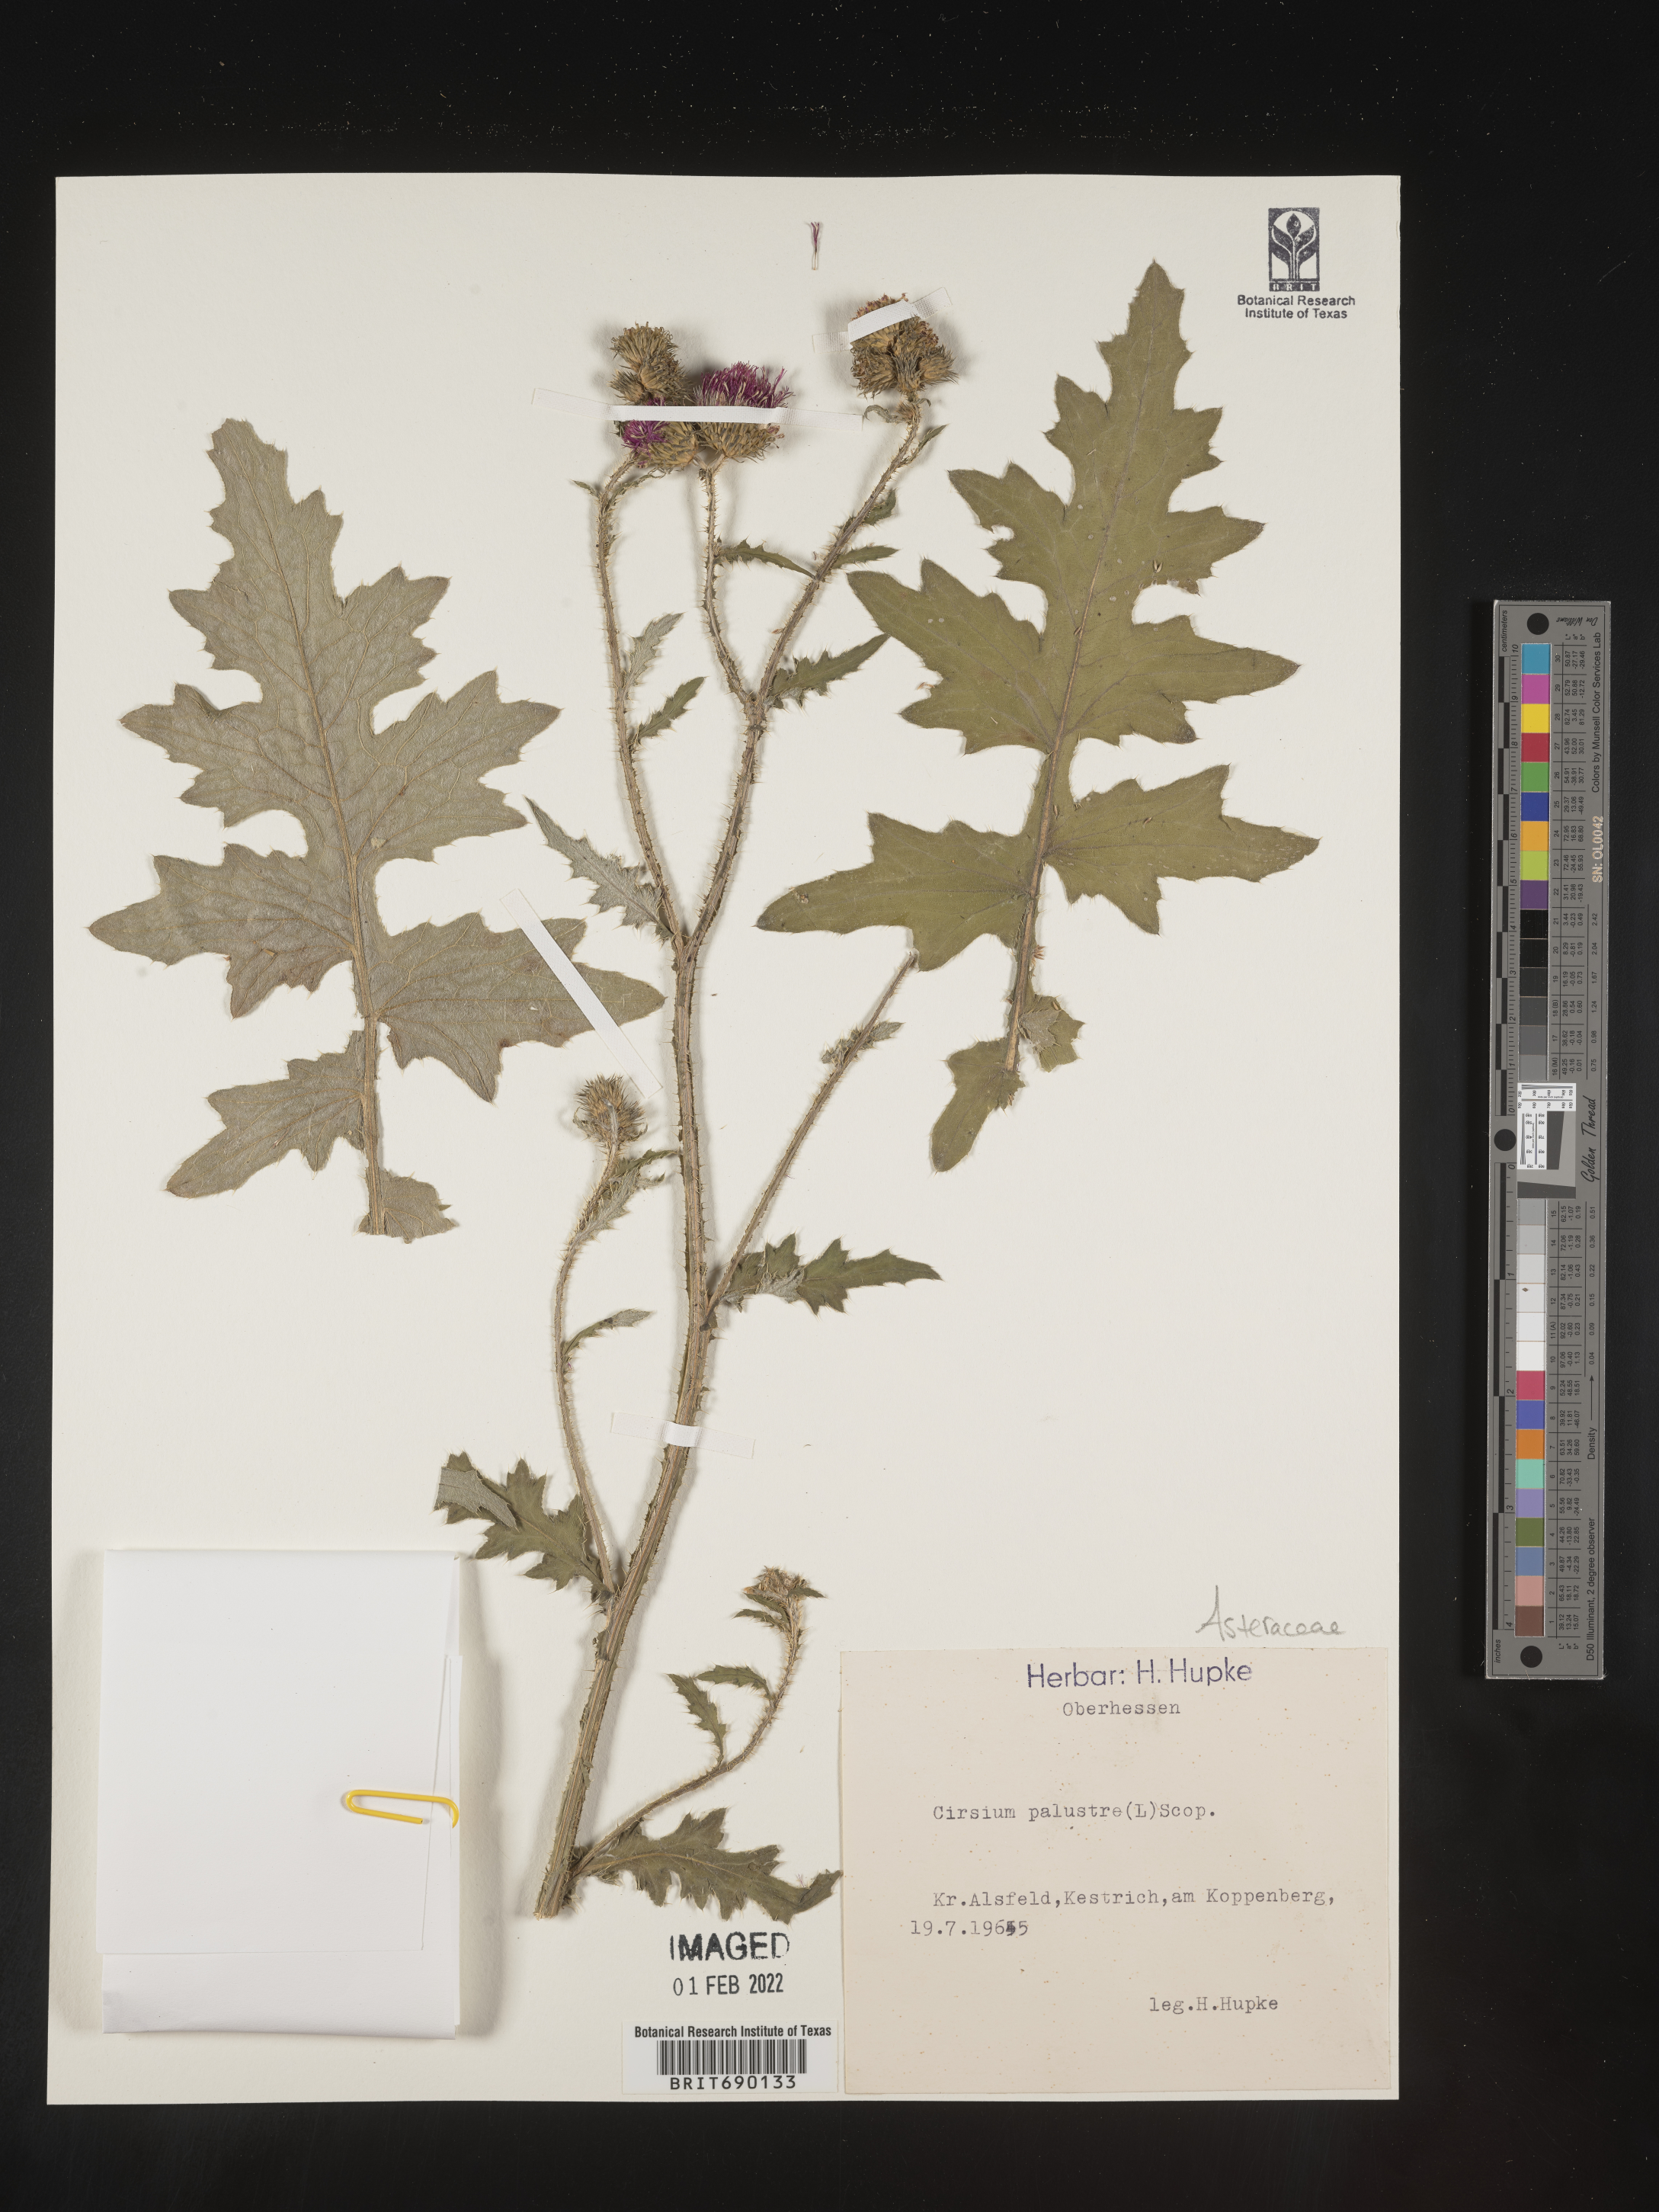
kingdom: Plantae
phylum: Tracheophyta
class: Magnoliopsida
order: Asterales
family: Asteraceae
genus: Cirsium
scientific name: Cirsium
